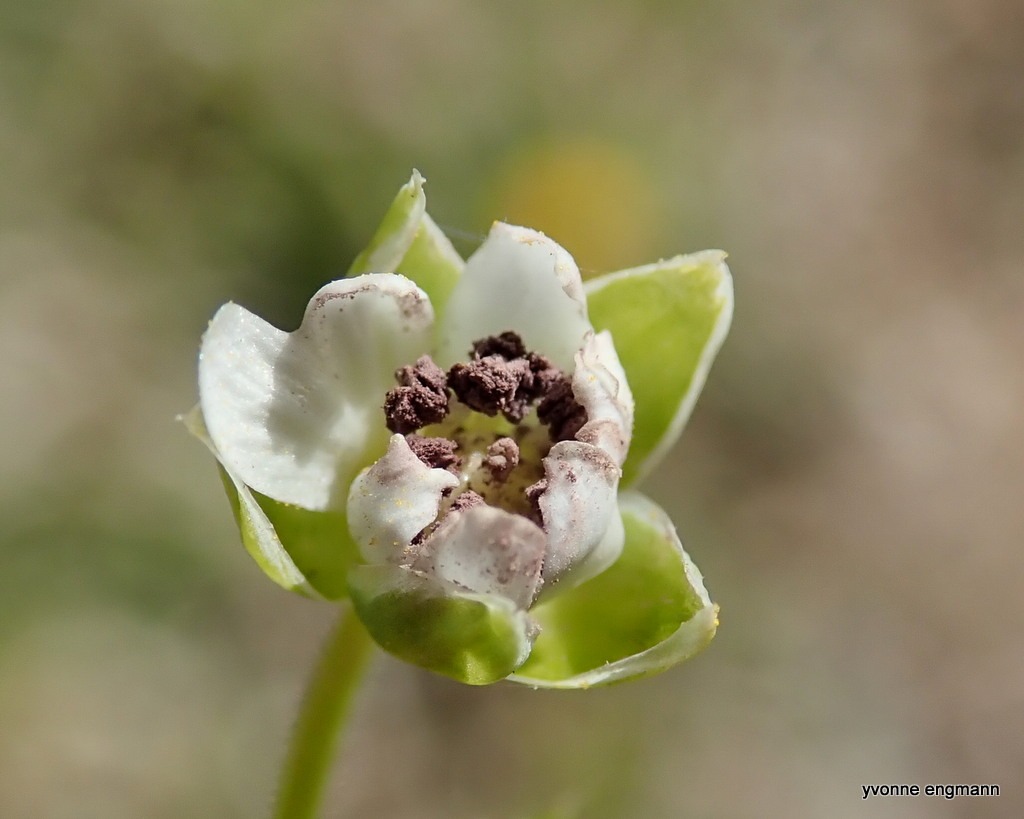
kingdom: Fungi
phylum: Basidiomycota
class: Microbotryomycetes
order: Microbotryales
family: Microbotryaceae
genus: Microbotryum
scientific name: Microbotryum stellariae
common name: Fladstjerne-støvbladrust
